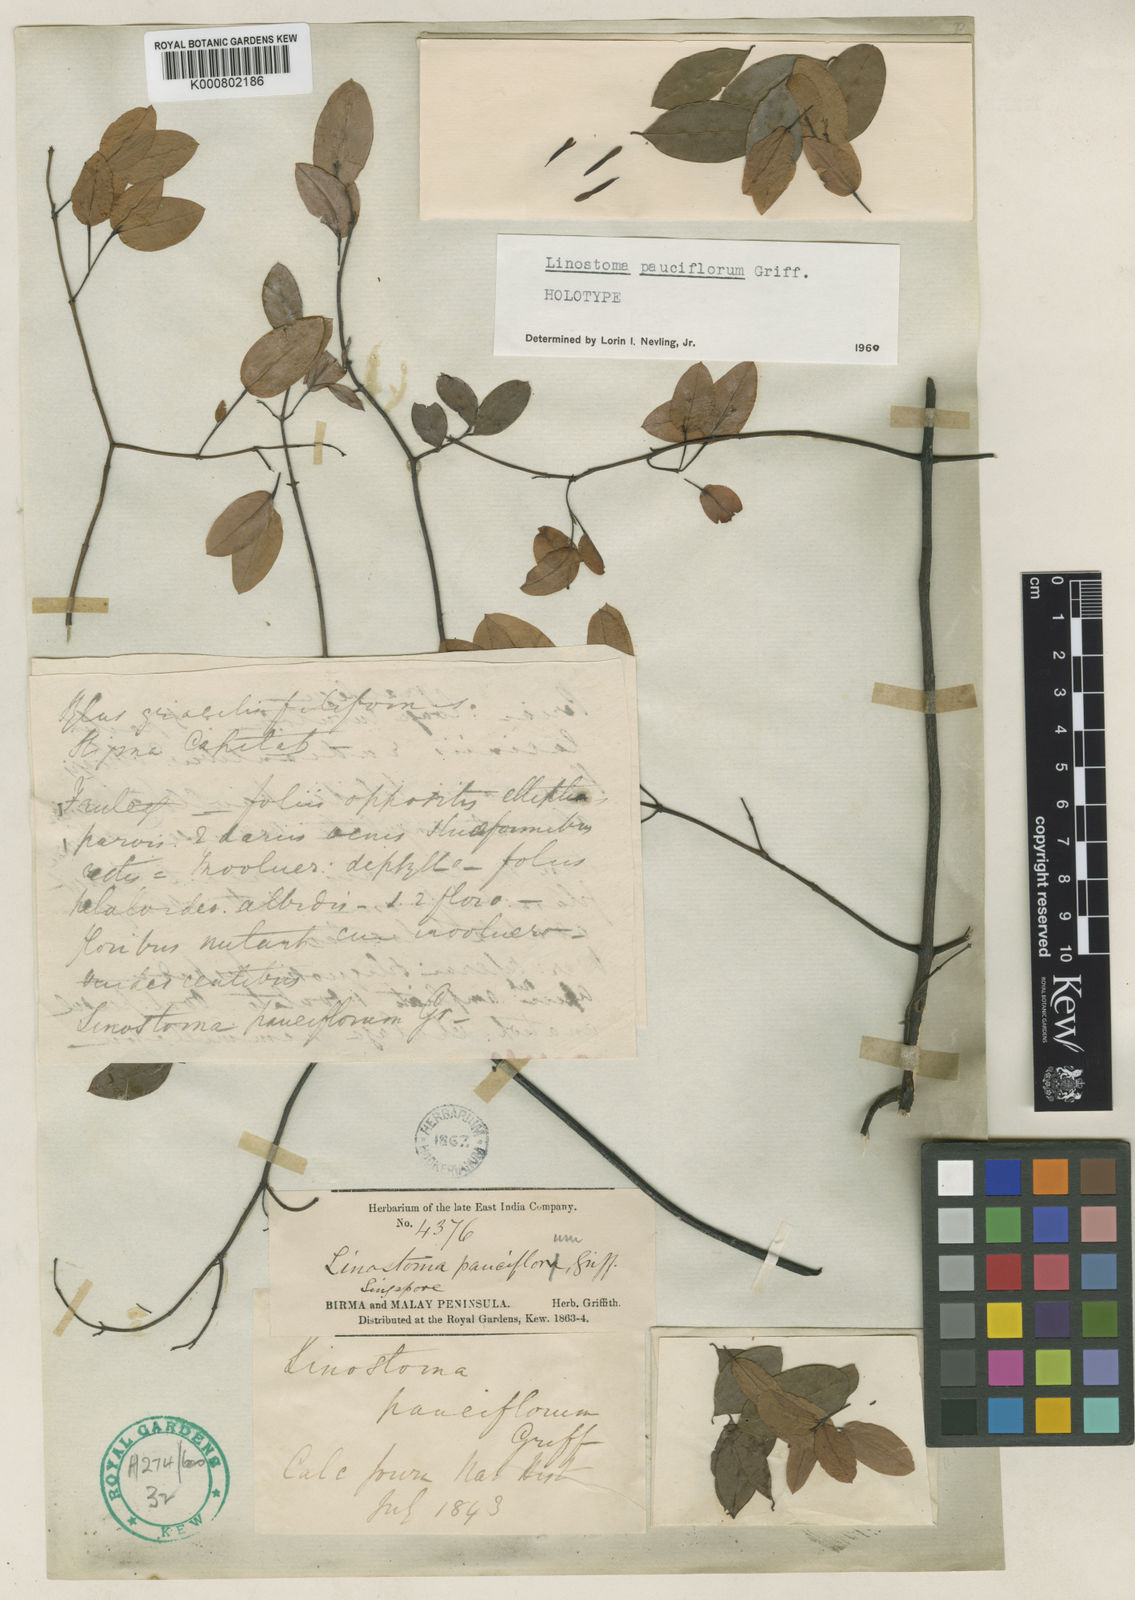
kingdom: Plantae
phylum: Tracheophyta
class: Magnoliopsida
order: Malvales
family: Thymelaeaceae
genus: Linostoma
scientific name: Linostoma pauciflorum
